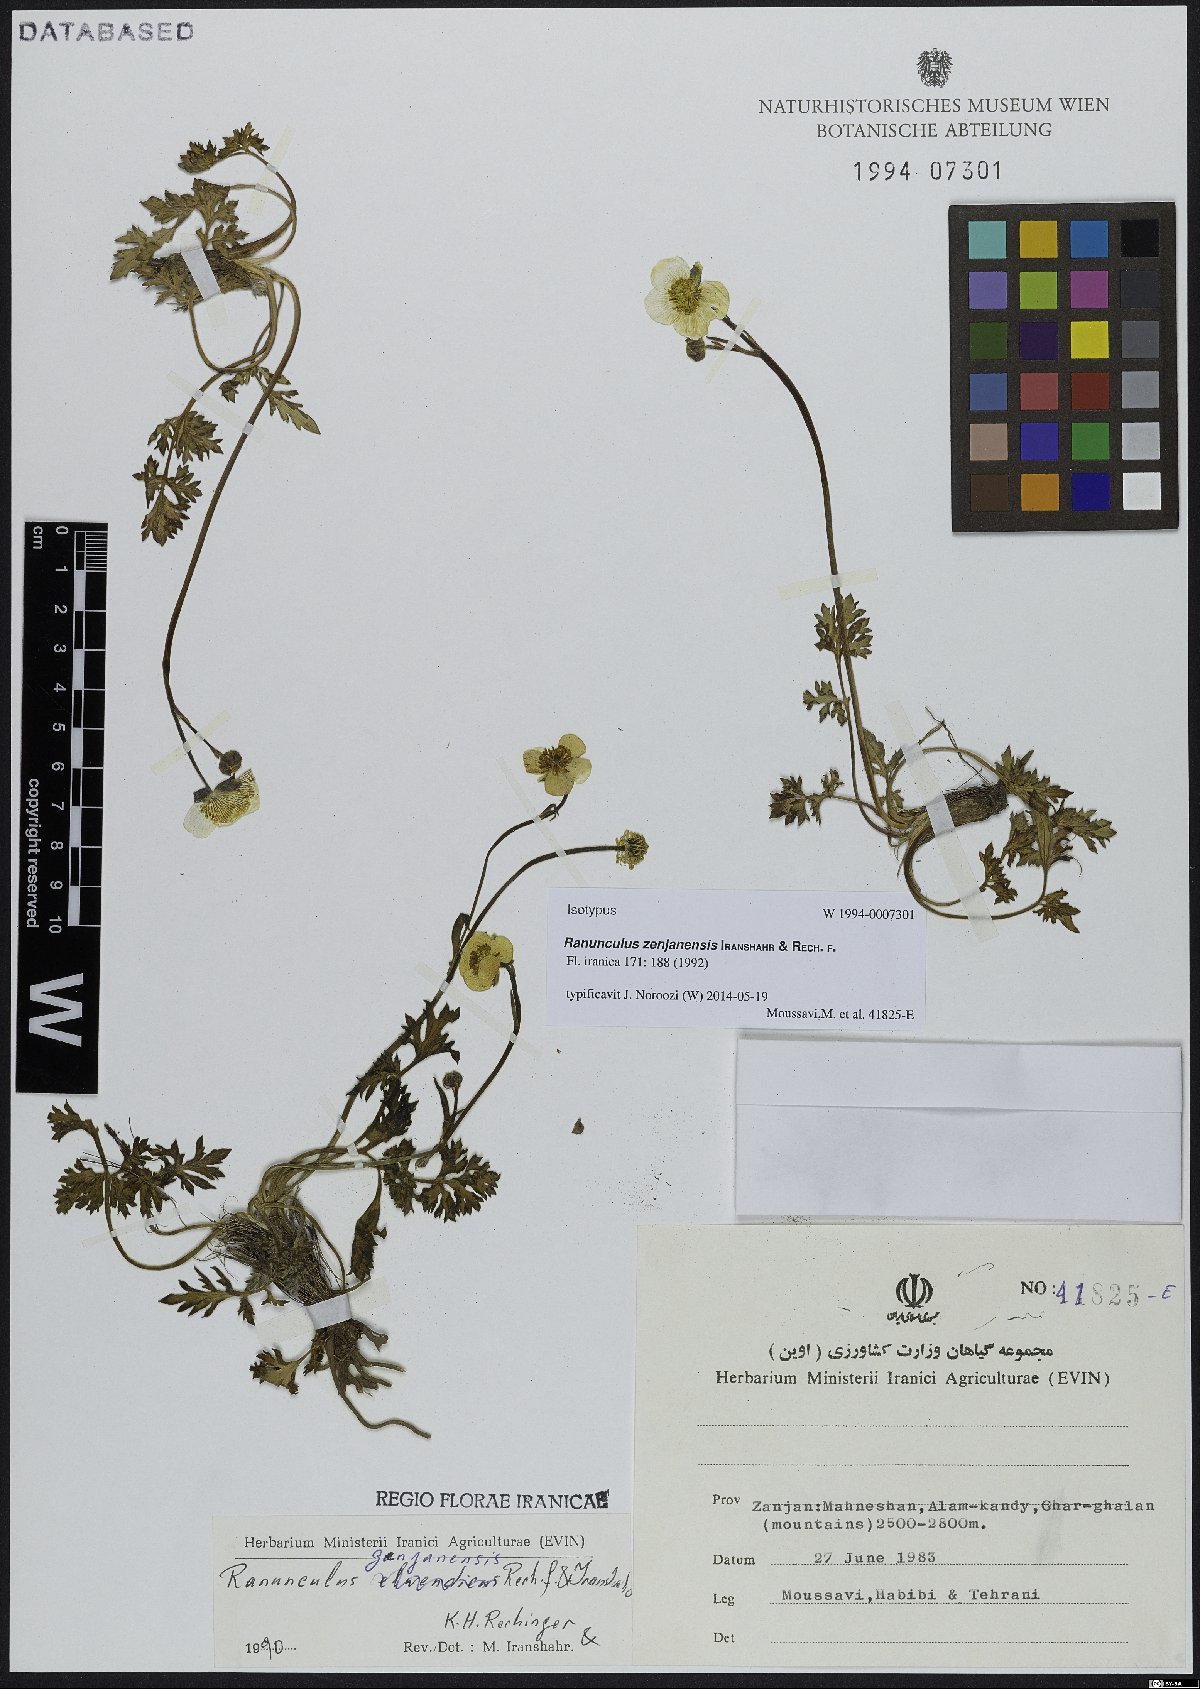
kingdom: Plantae
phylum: Tracheophyta
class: Magnoliopsida
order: Ranunculales
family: Ranunculaceae
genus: Ranunculus
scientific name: Ranunculus zenjanensis
